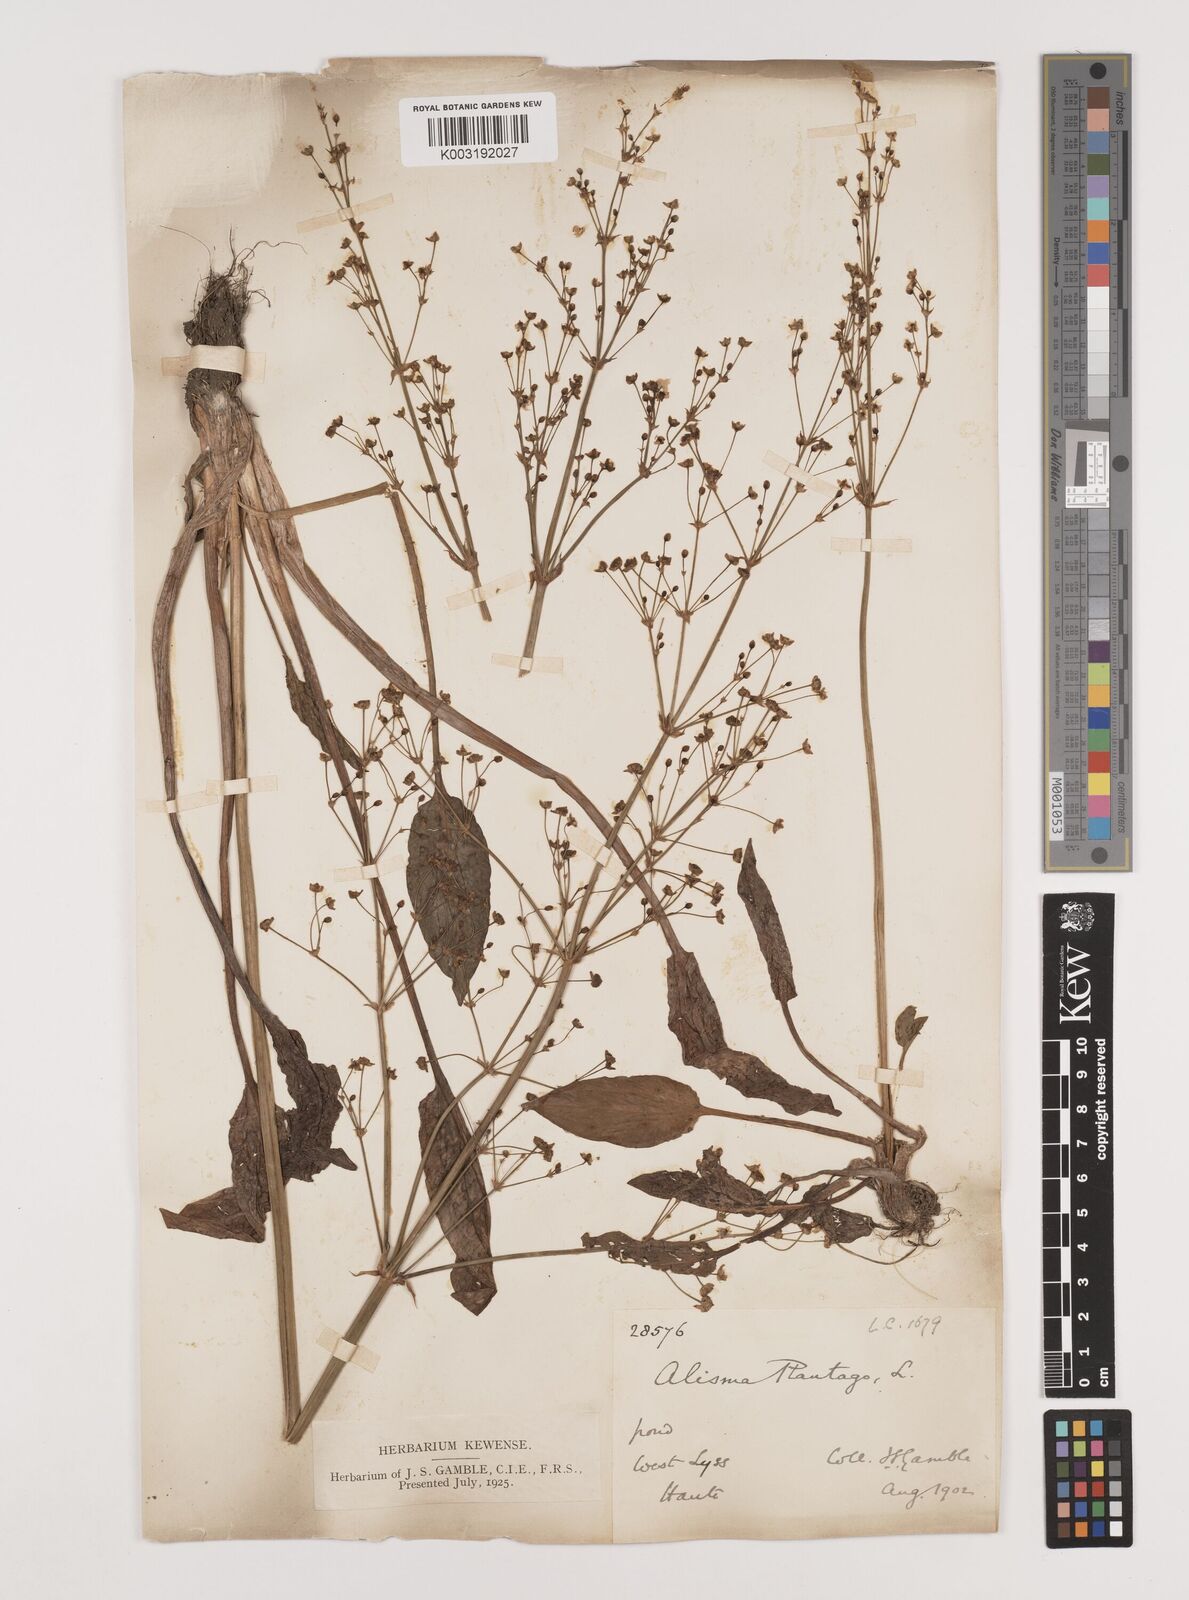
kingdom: Plantae
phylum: Tracheophyta
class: Liliopsida
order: Alismatales
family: Alismataceae
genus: Alisma
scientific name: Alisma plantago-aquatica
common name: Water-plantain
